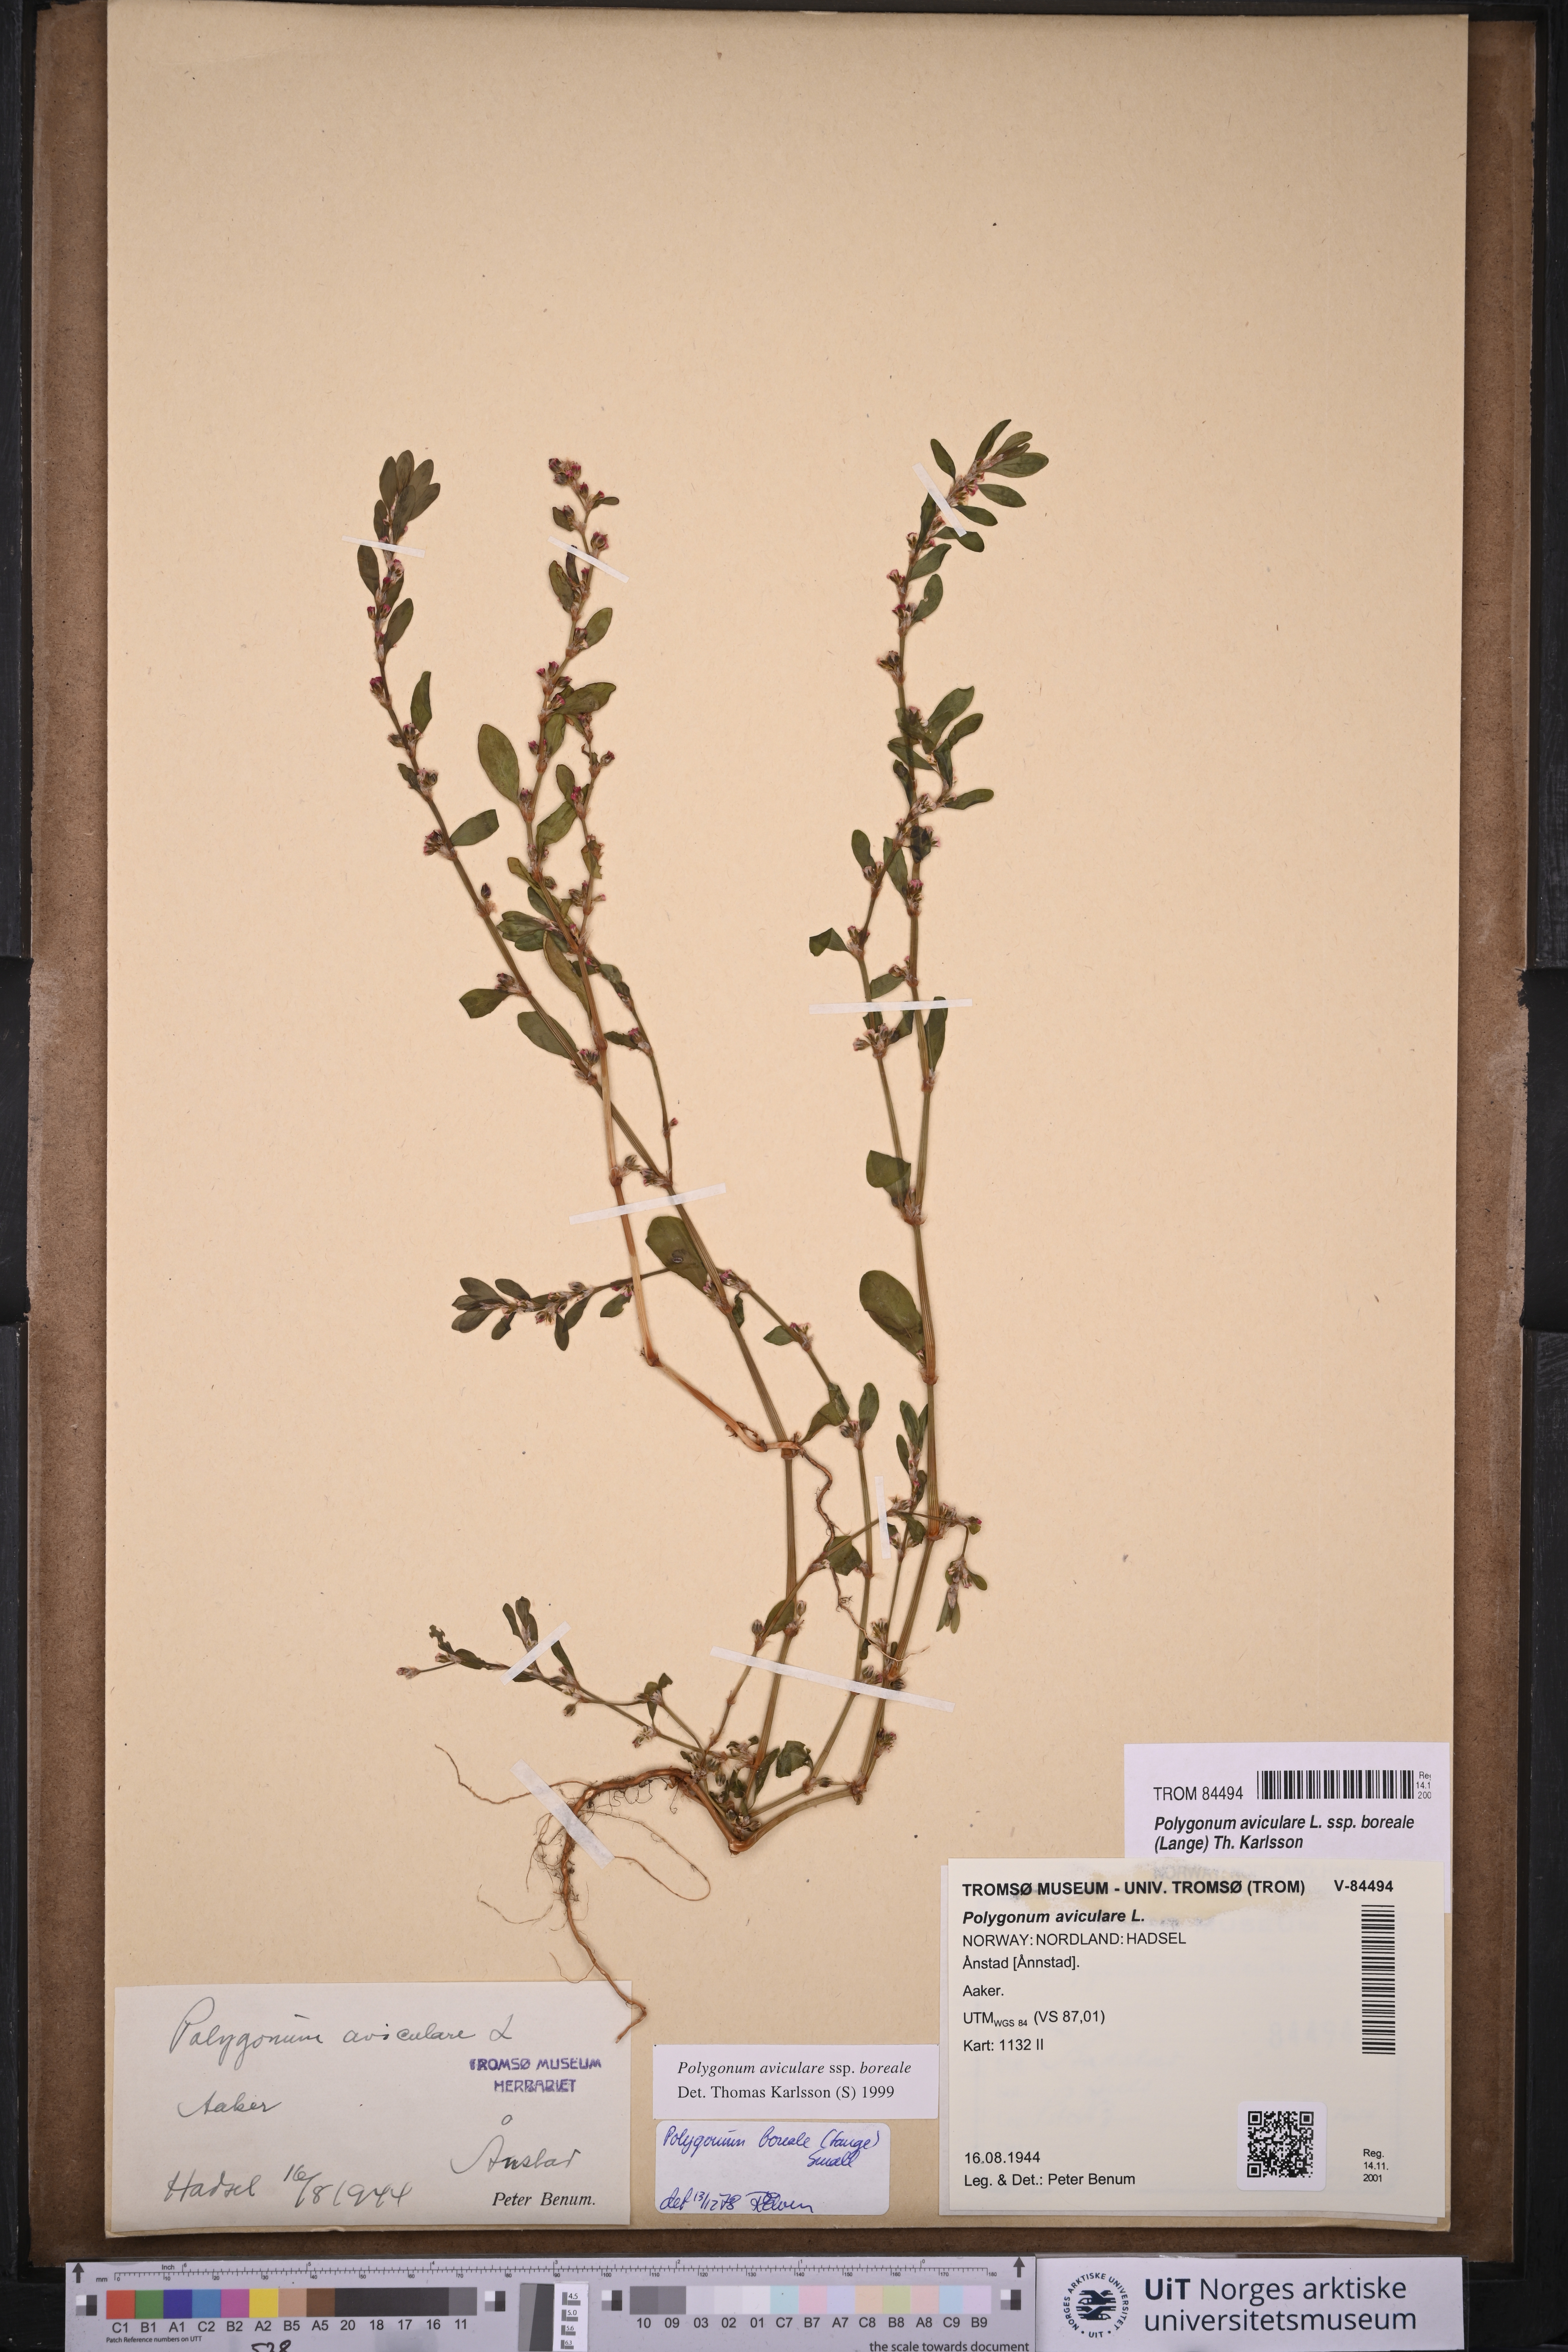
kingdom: Plantae
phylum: Tracheophyta
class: Magnoliopsida
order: Caryophyllales
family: Polygonaceae
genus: Polygonum
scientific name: Polygonum boreale
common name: Northern knotgrass
